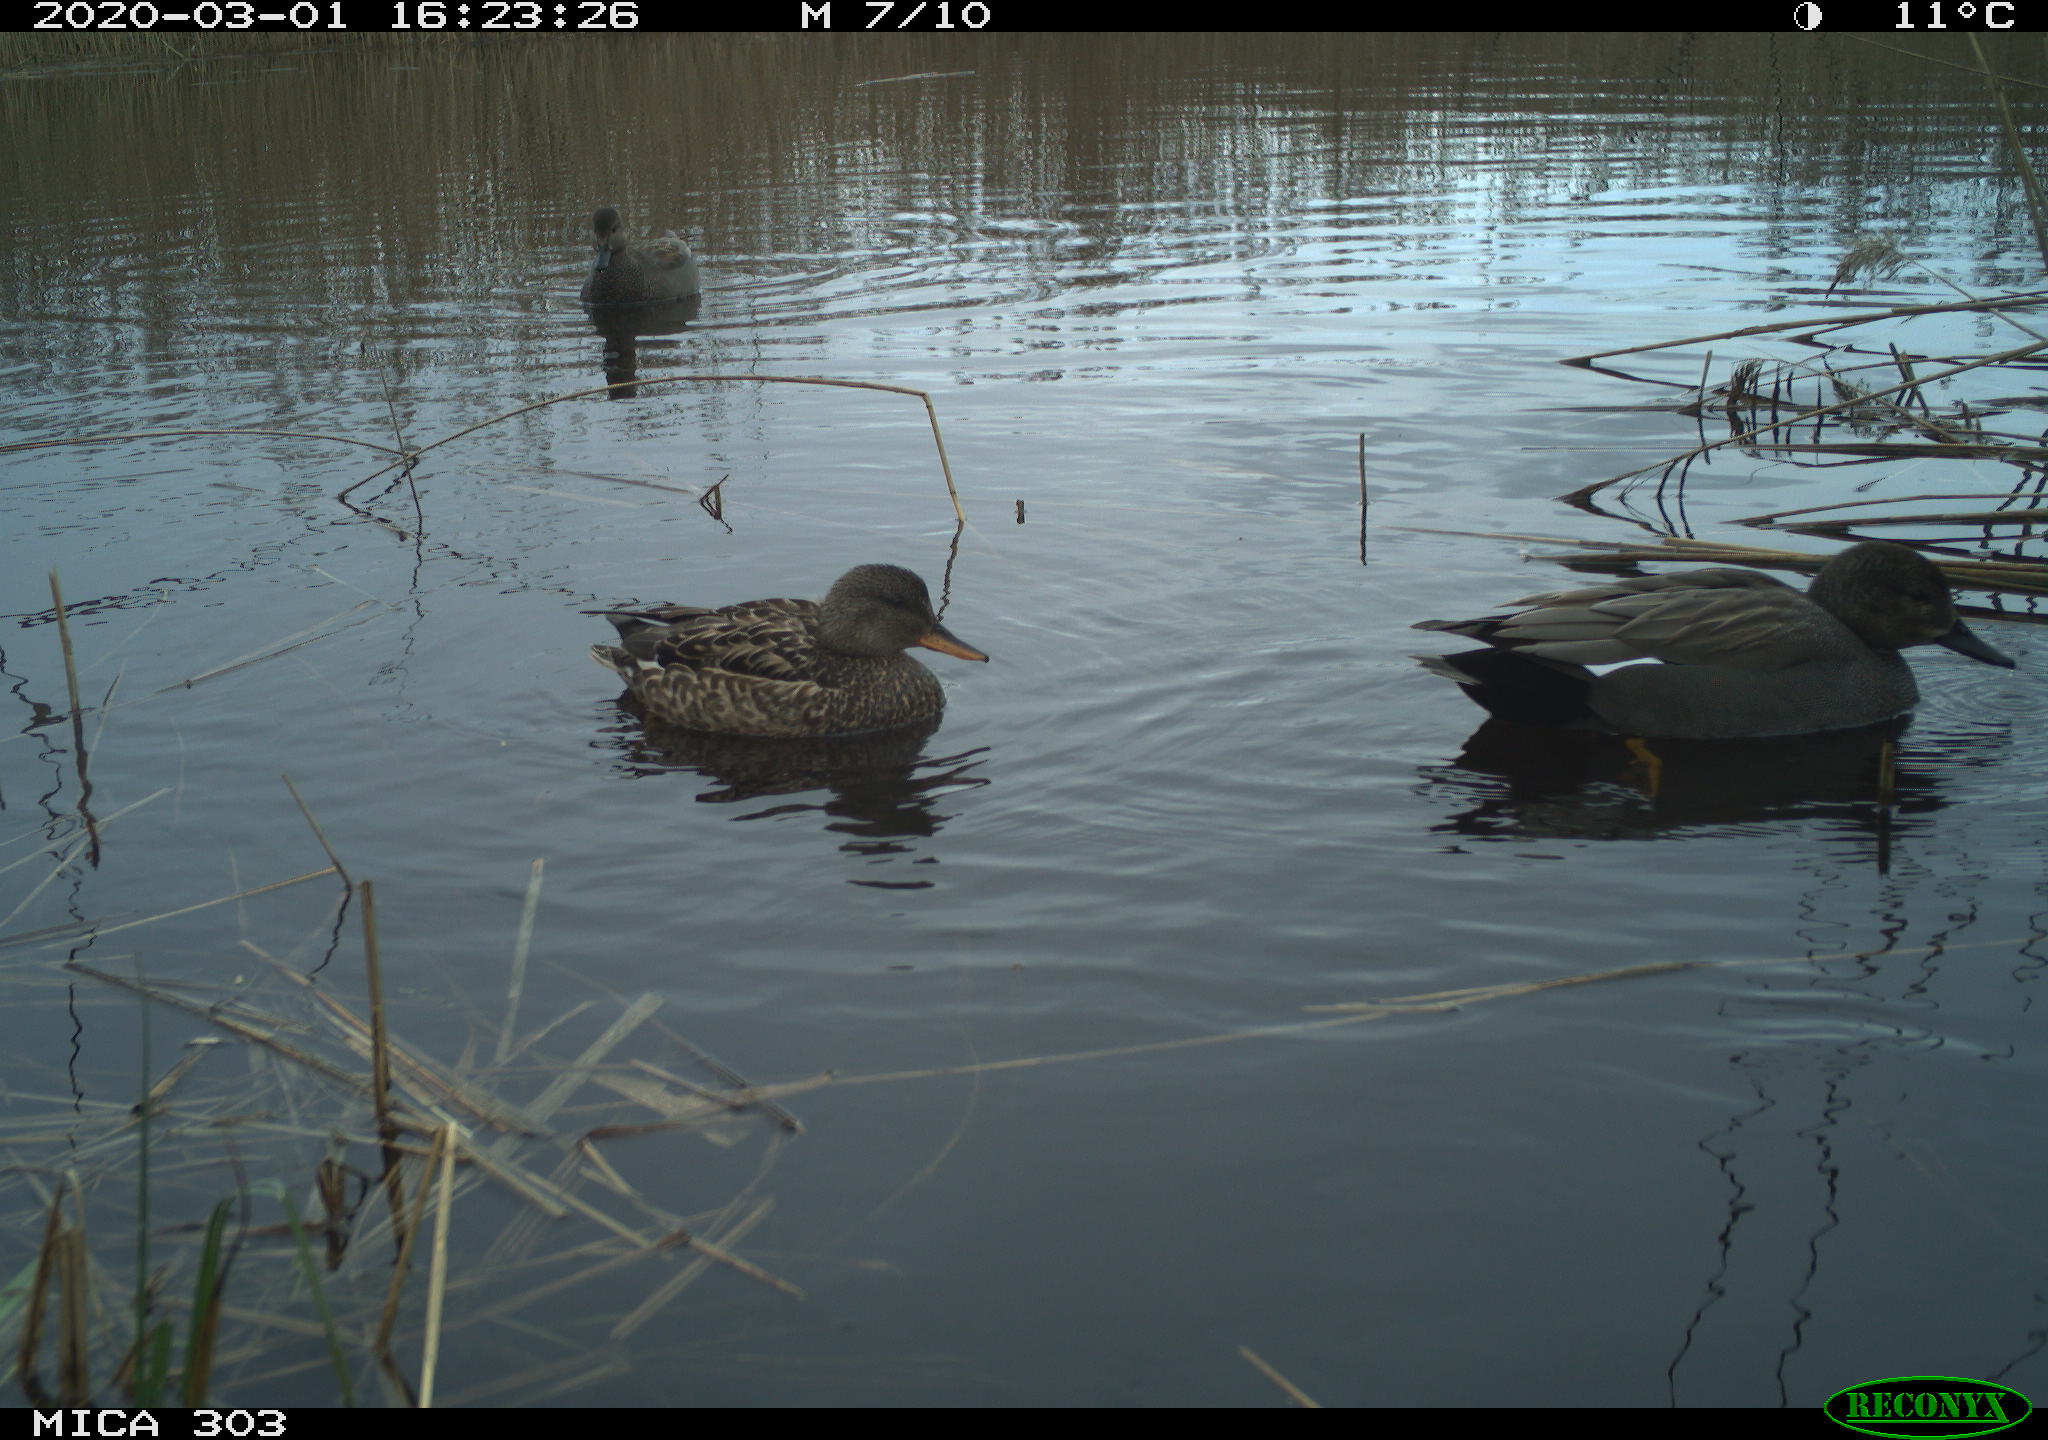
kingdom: Animalia
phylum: Chordata
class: Aves
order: Anseriformes
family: Anatidae
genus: Mareca
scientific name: Mareca strepera
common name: Gadwall
